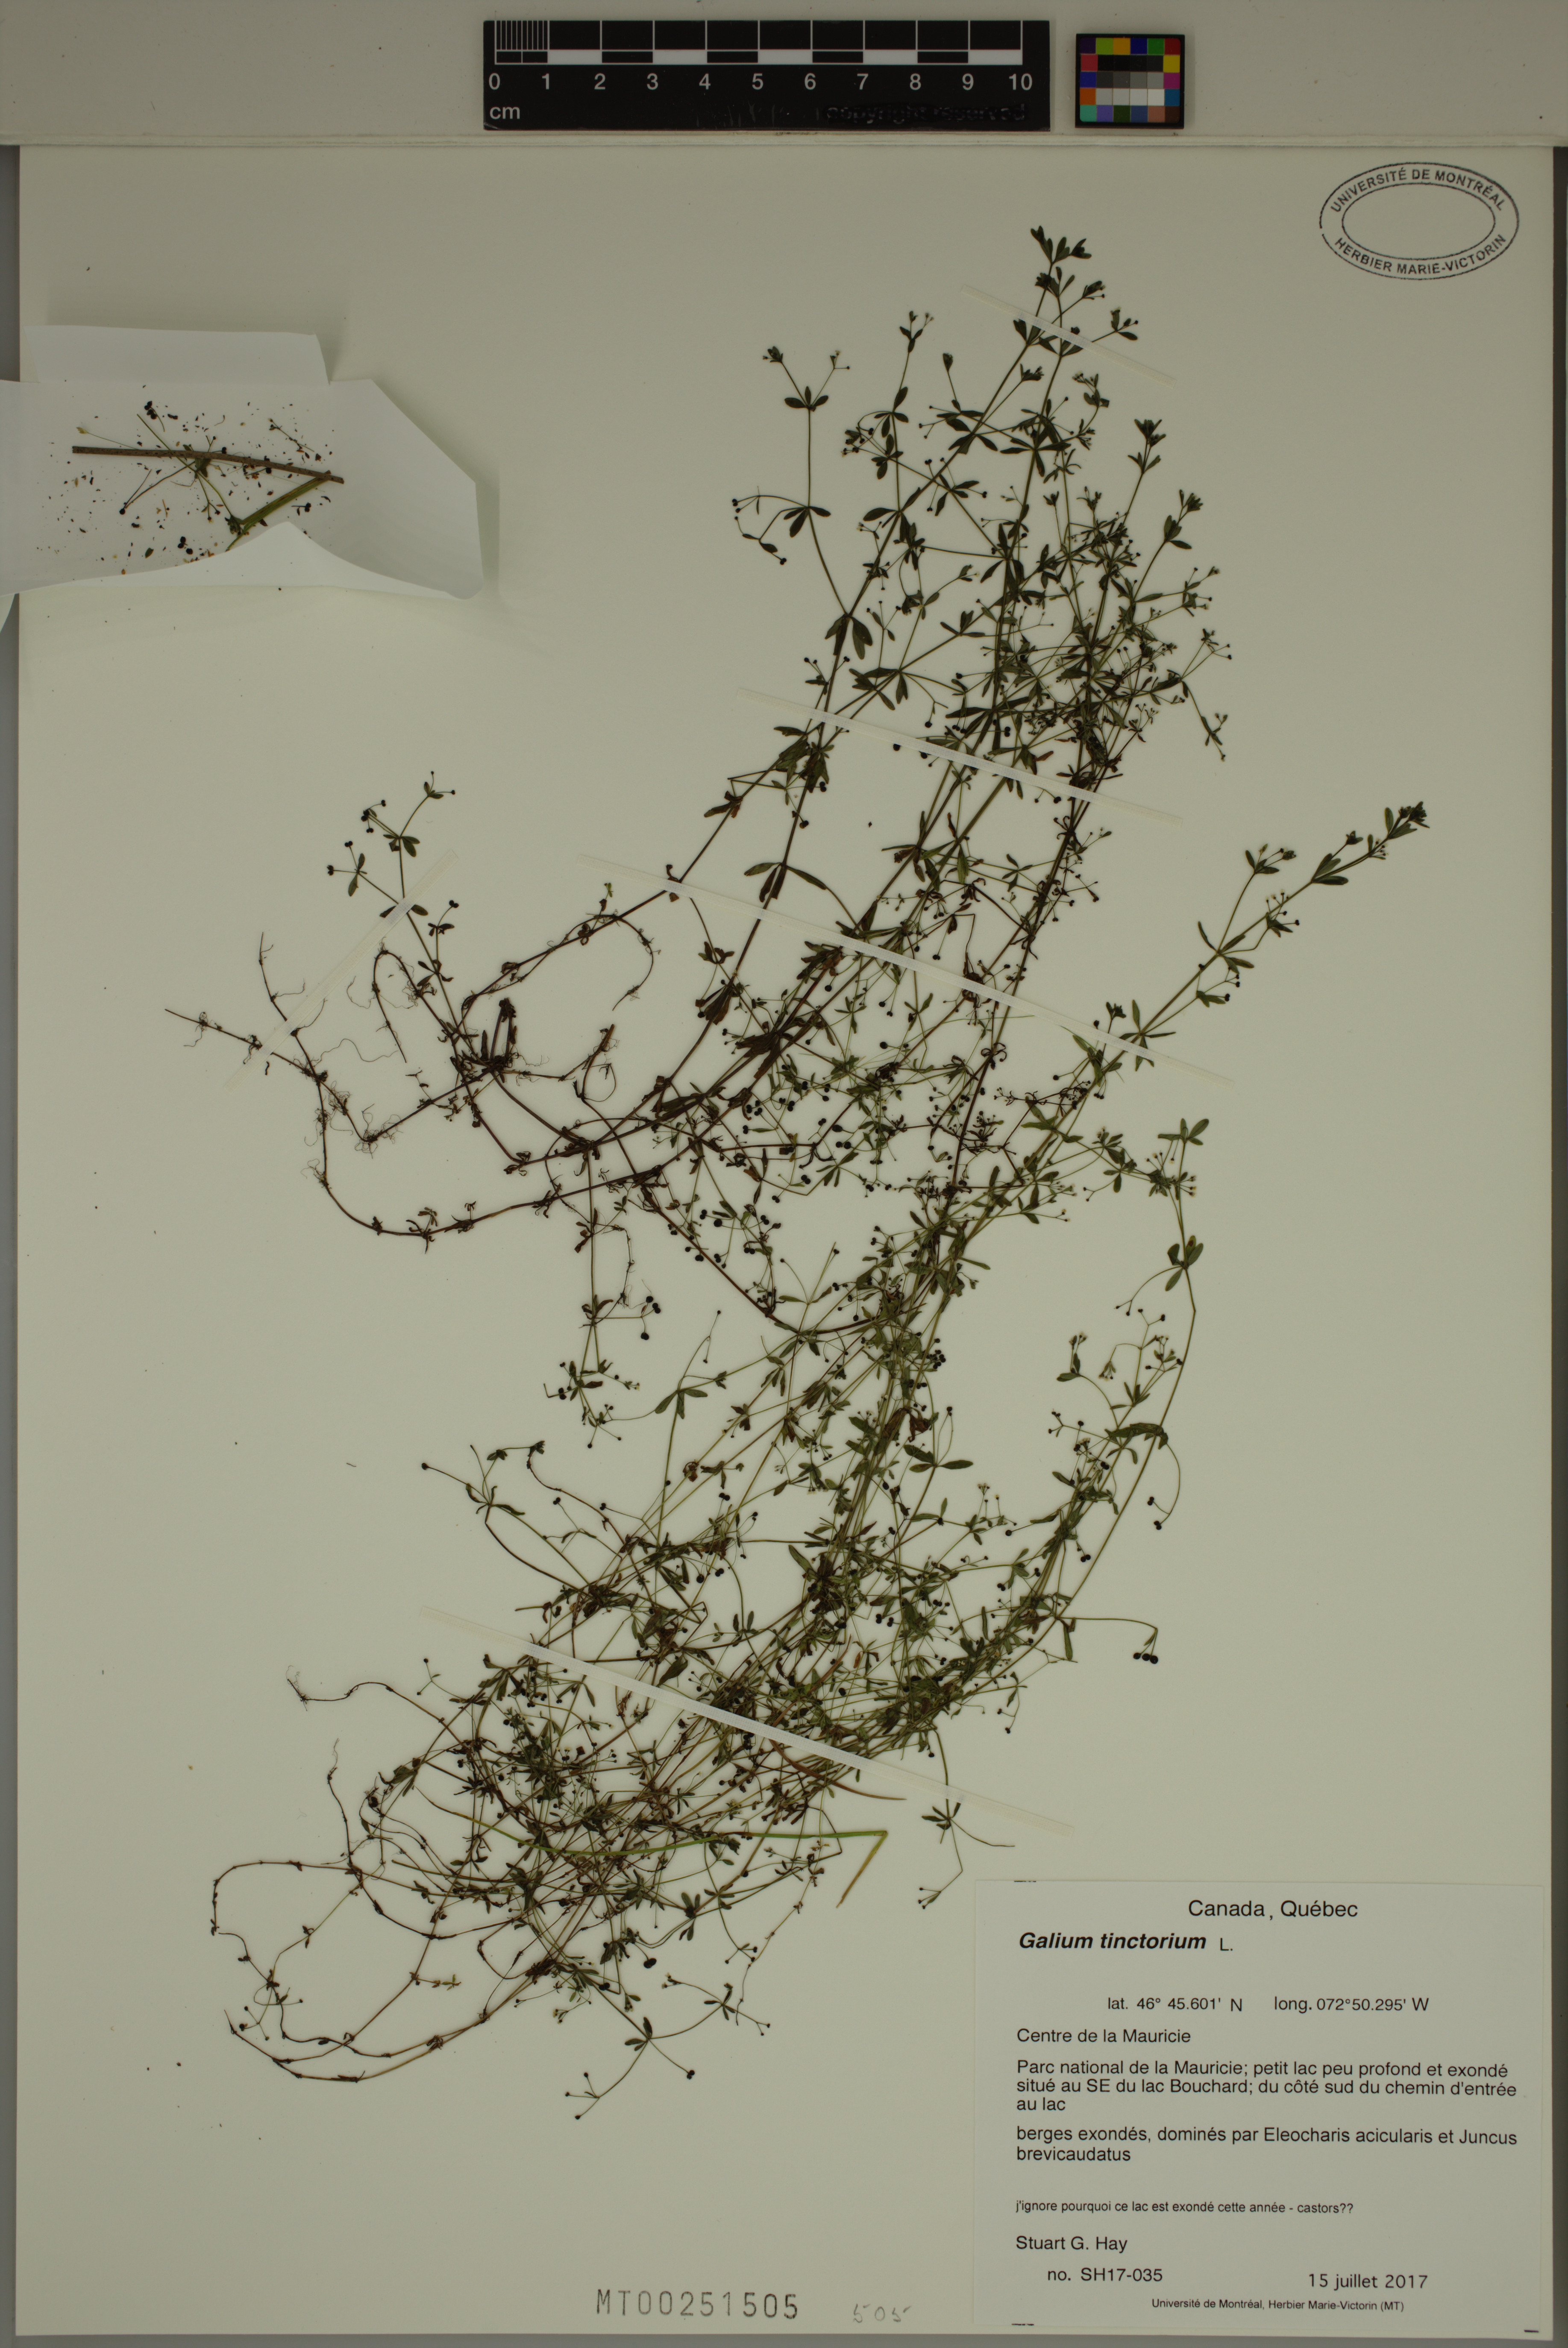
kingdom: Plantae
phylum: Tracheophyta
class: Magnoliopsida
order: Gentianales
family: Rubiaceae
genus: Galium
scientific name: Galium tinctorium
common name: Bedstraw
